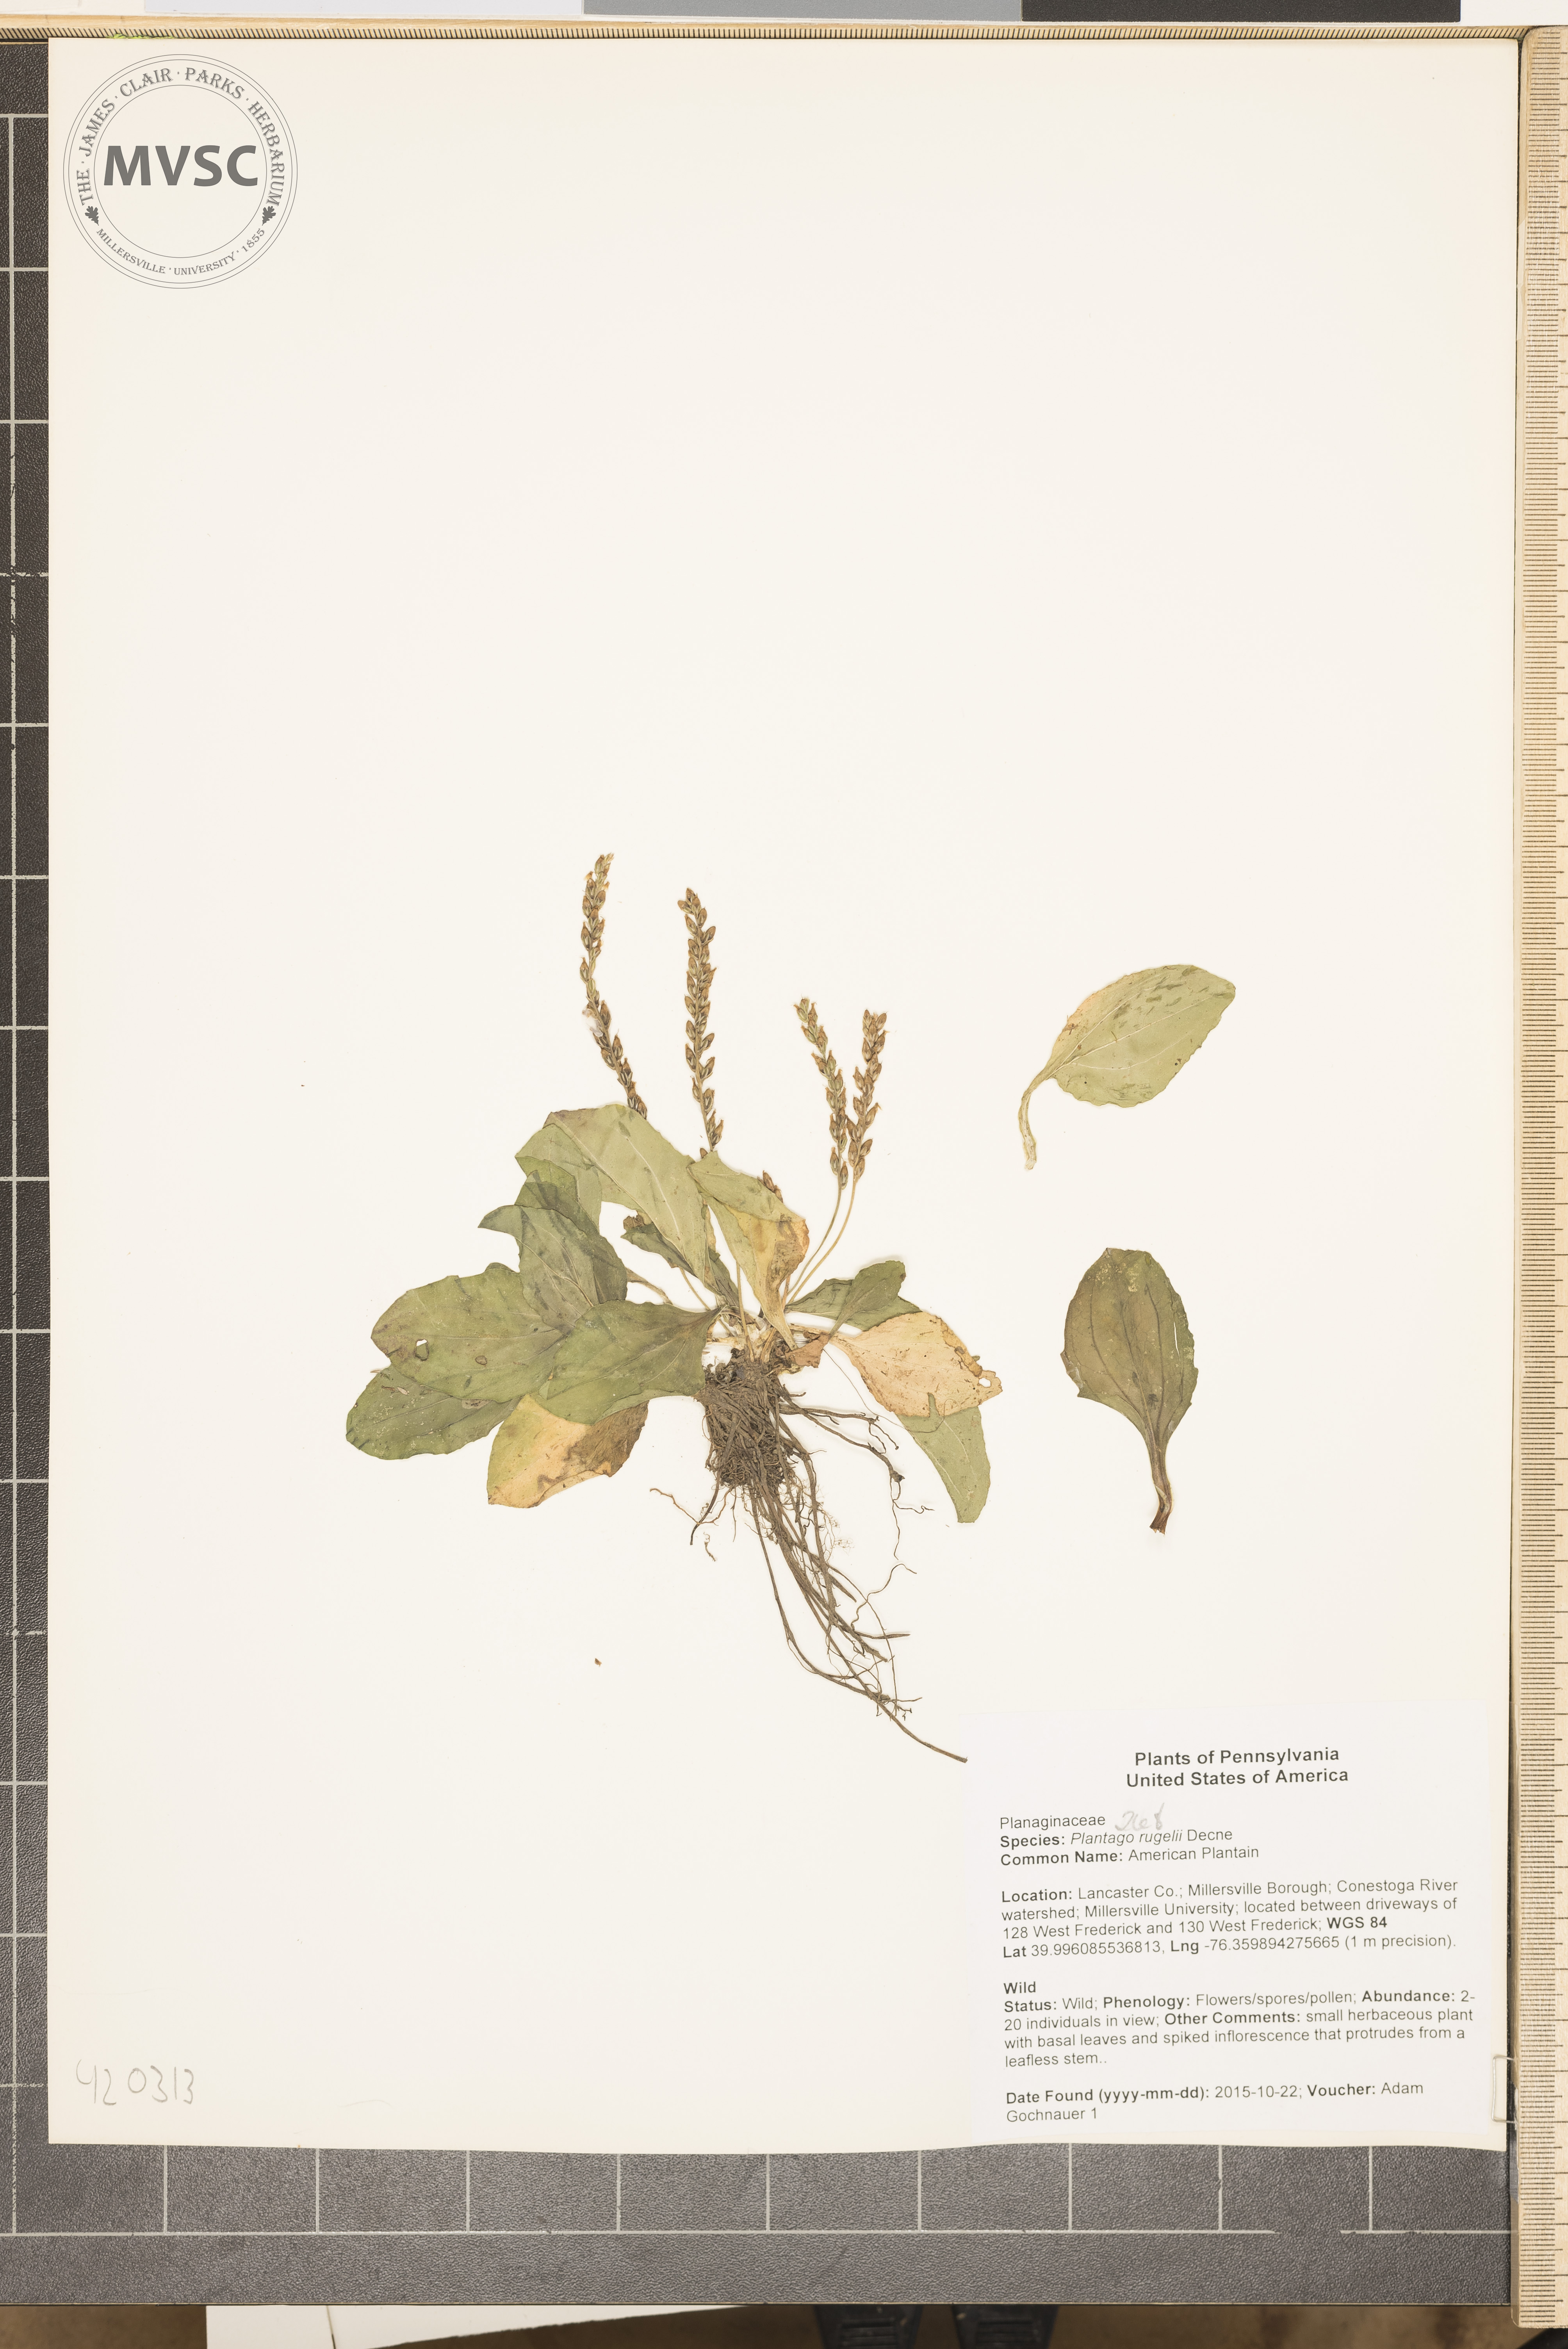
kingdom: Plantae
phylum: Tracheophyta
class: Magnoliopsida
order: Lamiales
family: Plantaginaceae
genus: Plantago
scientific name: Plantago rugelii
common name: American Plantain
